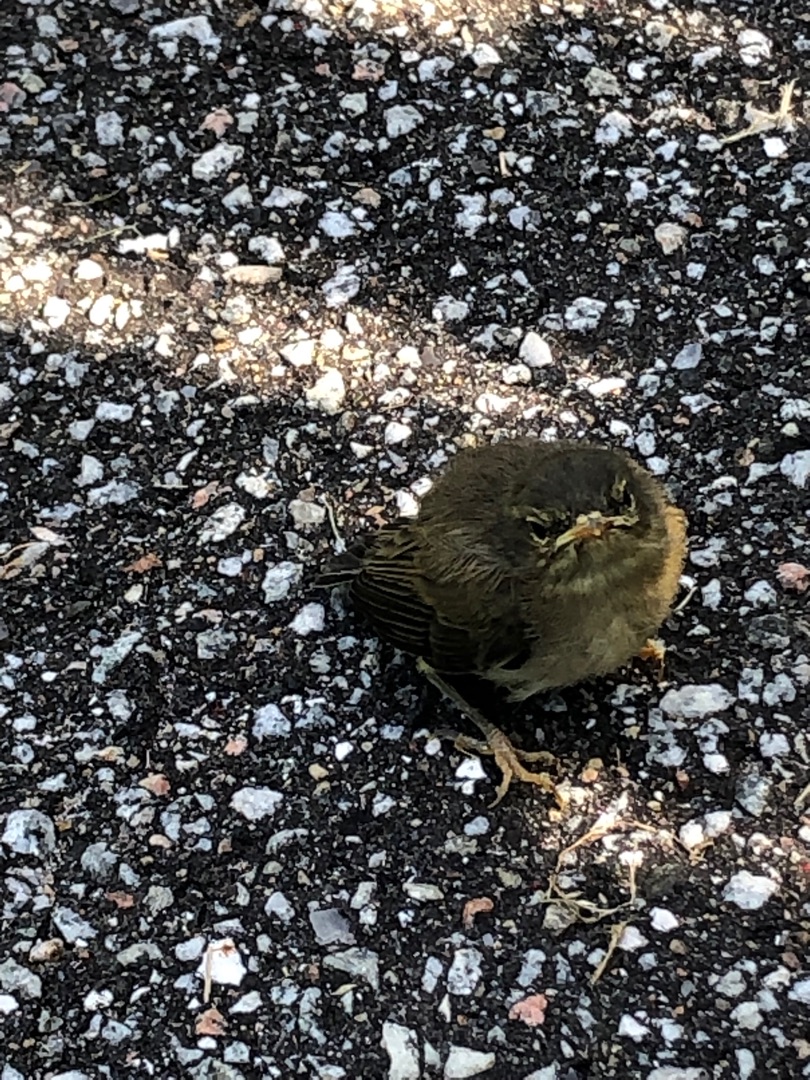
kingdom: Animalia
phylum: Chordata
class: Aves
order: Passeriformes
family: Troglodytidae
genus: Troglodytes
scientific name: Troglodytes troglodytes
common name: Gærdesmutte
